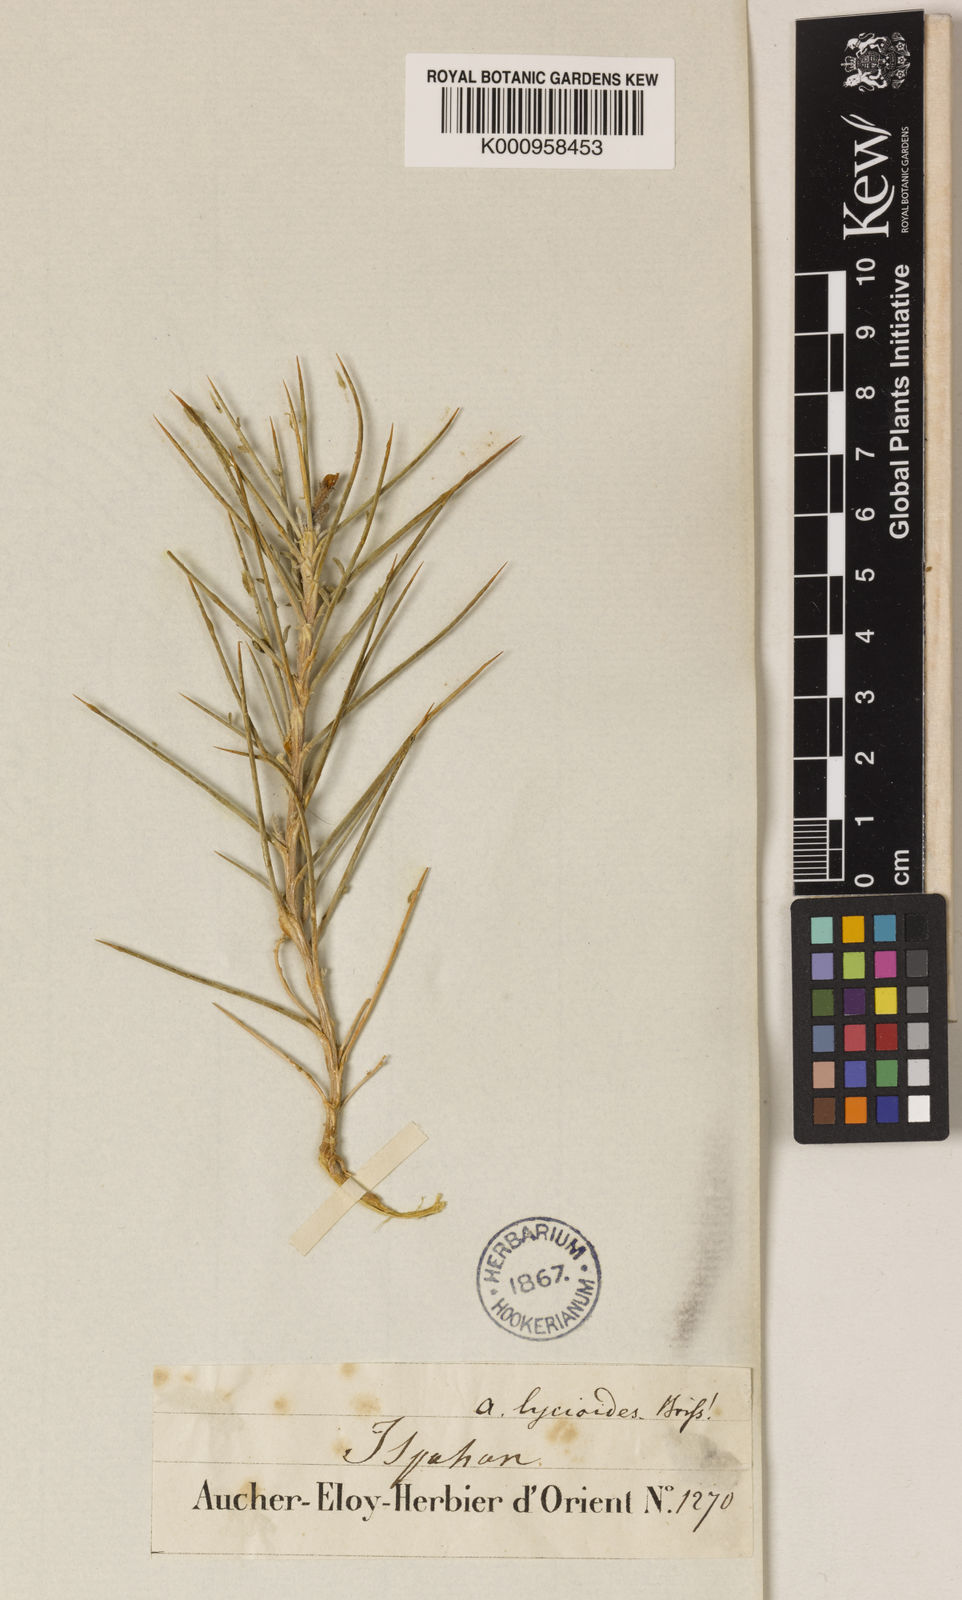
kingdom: Plantae
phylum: Tracheophyta
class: Magnoliopsida
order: Fabales
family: Fabaceae
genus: Astragalus
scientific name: Astragalus lycioides
